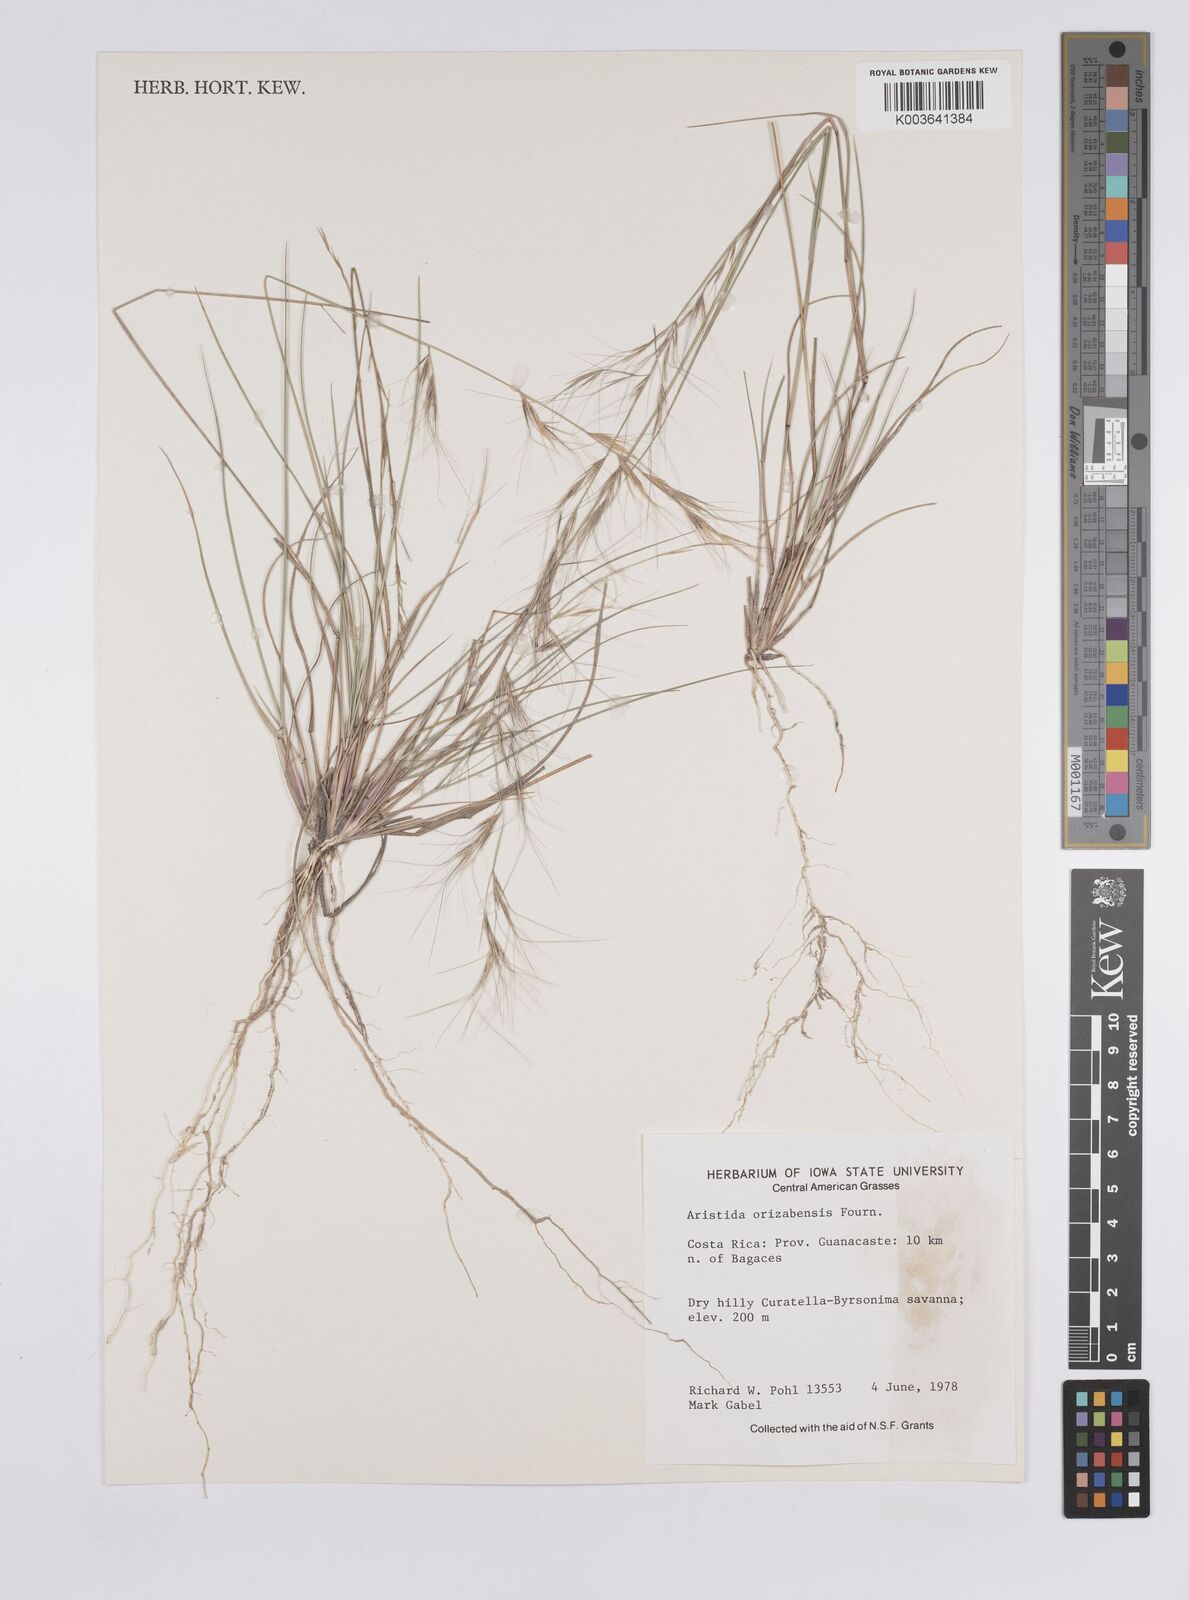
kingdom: Plantae
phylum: Tracheophyta
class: Liliopsida
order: Poales
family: Poaceae
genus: Aristida
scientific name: Aristida gibbosa
